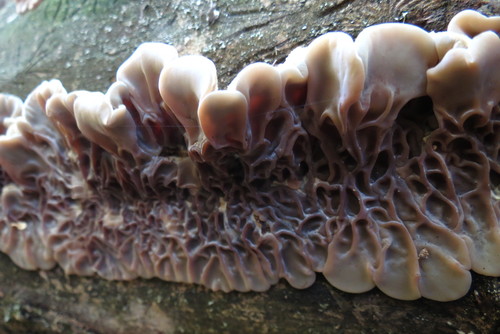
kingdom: Fungi
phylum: Basidiomycota
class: Agaricomycetes
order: Auriculariales
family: Auriculariaceae
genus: Auricularia
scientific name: Auricularia mesenterica
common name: Tripe fungus
